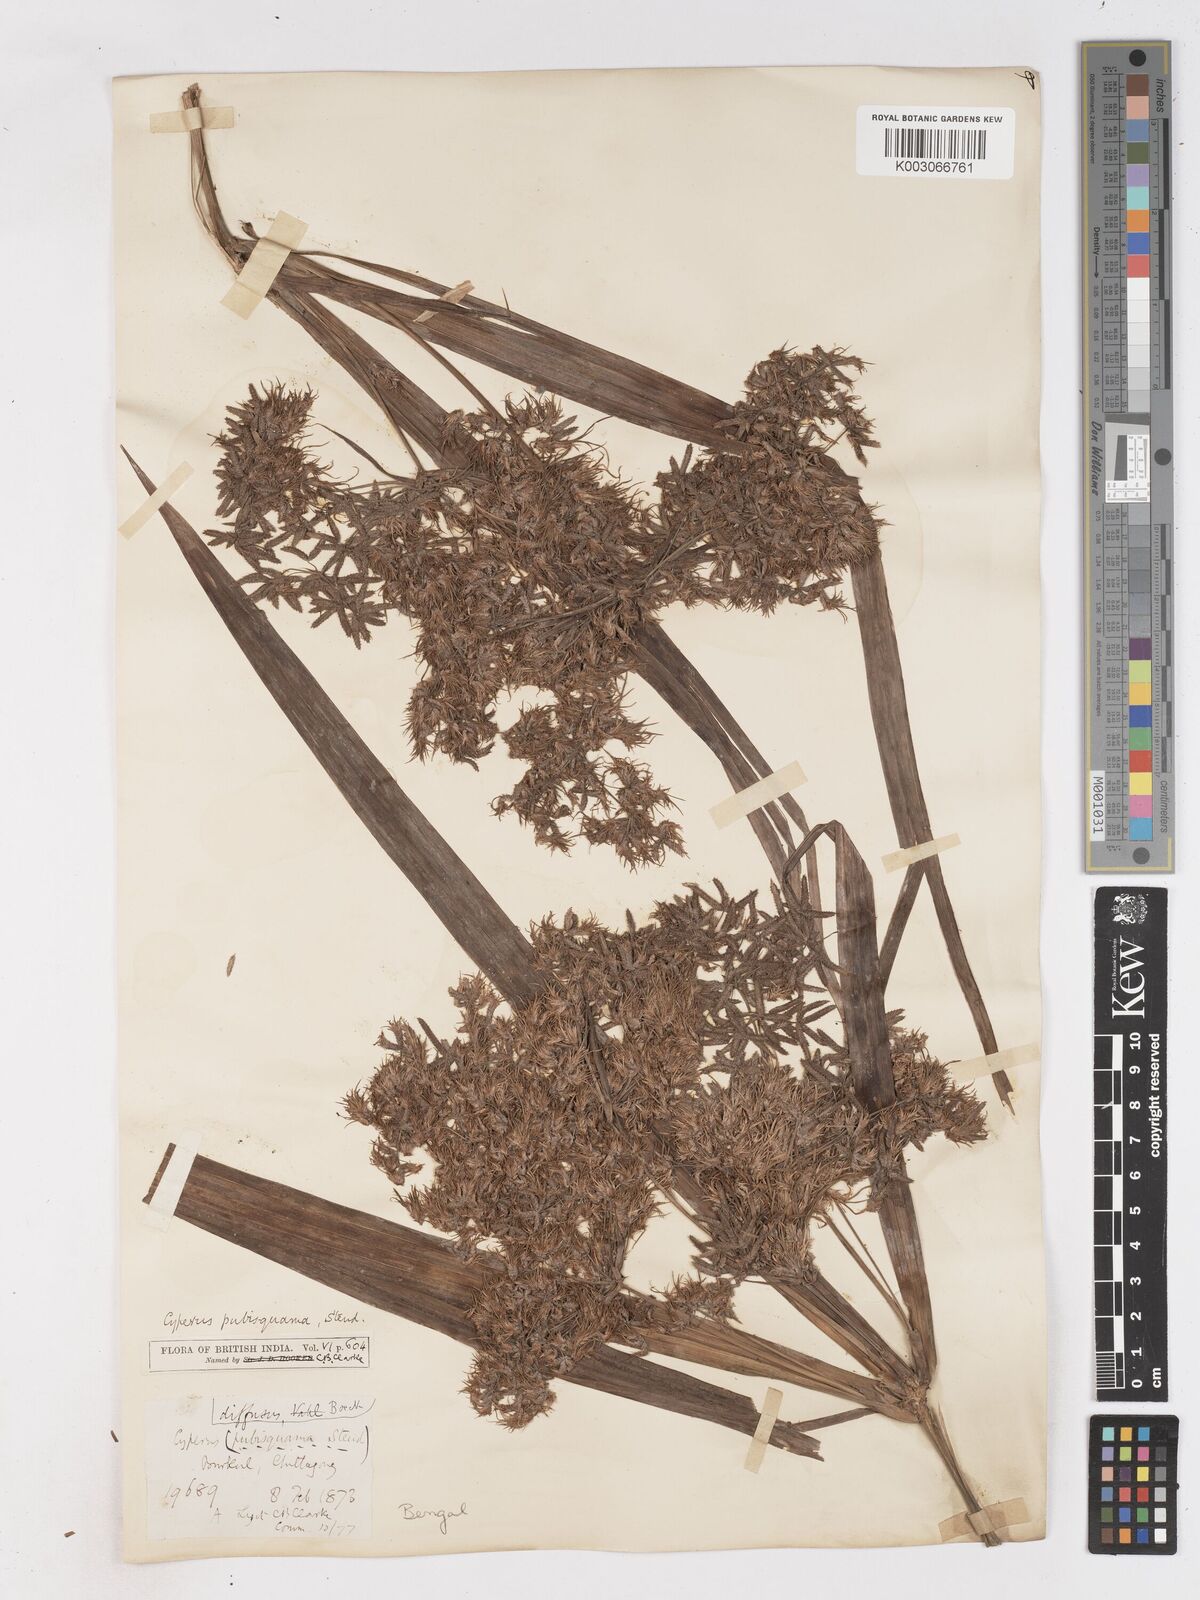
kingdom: Plantae
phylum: Tracheophyta
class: Liliopsida
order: Poales
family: Cyperaceae
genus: Cyperus
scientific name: Cyperus diffusus
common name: Dwarf umbrella grass
